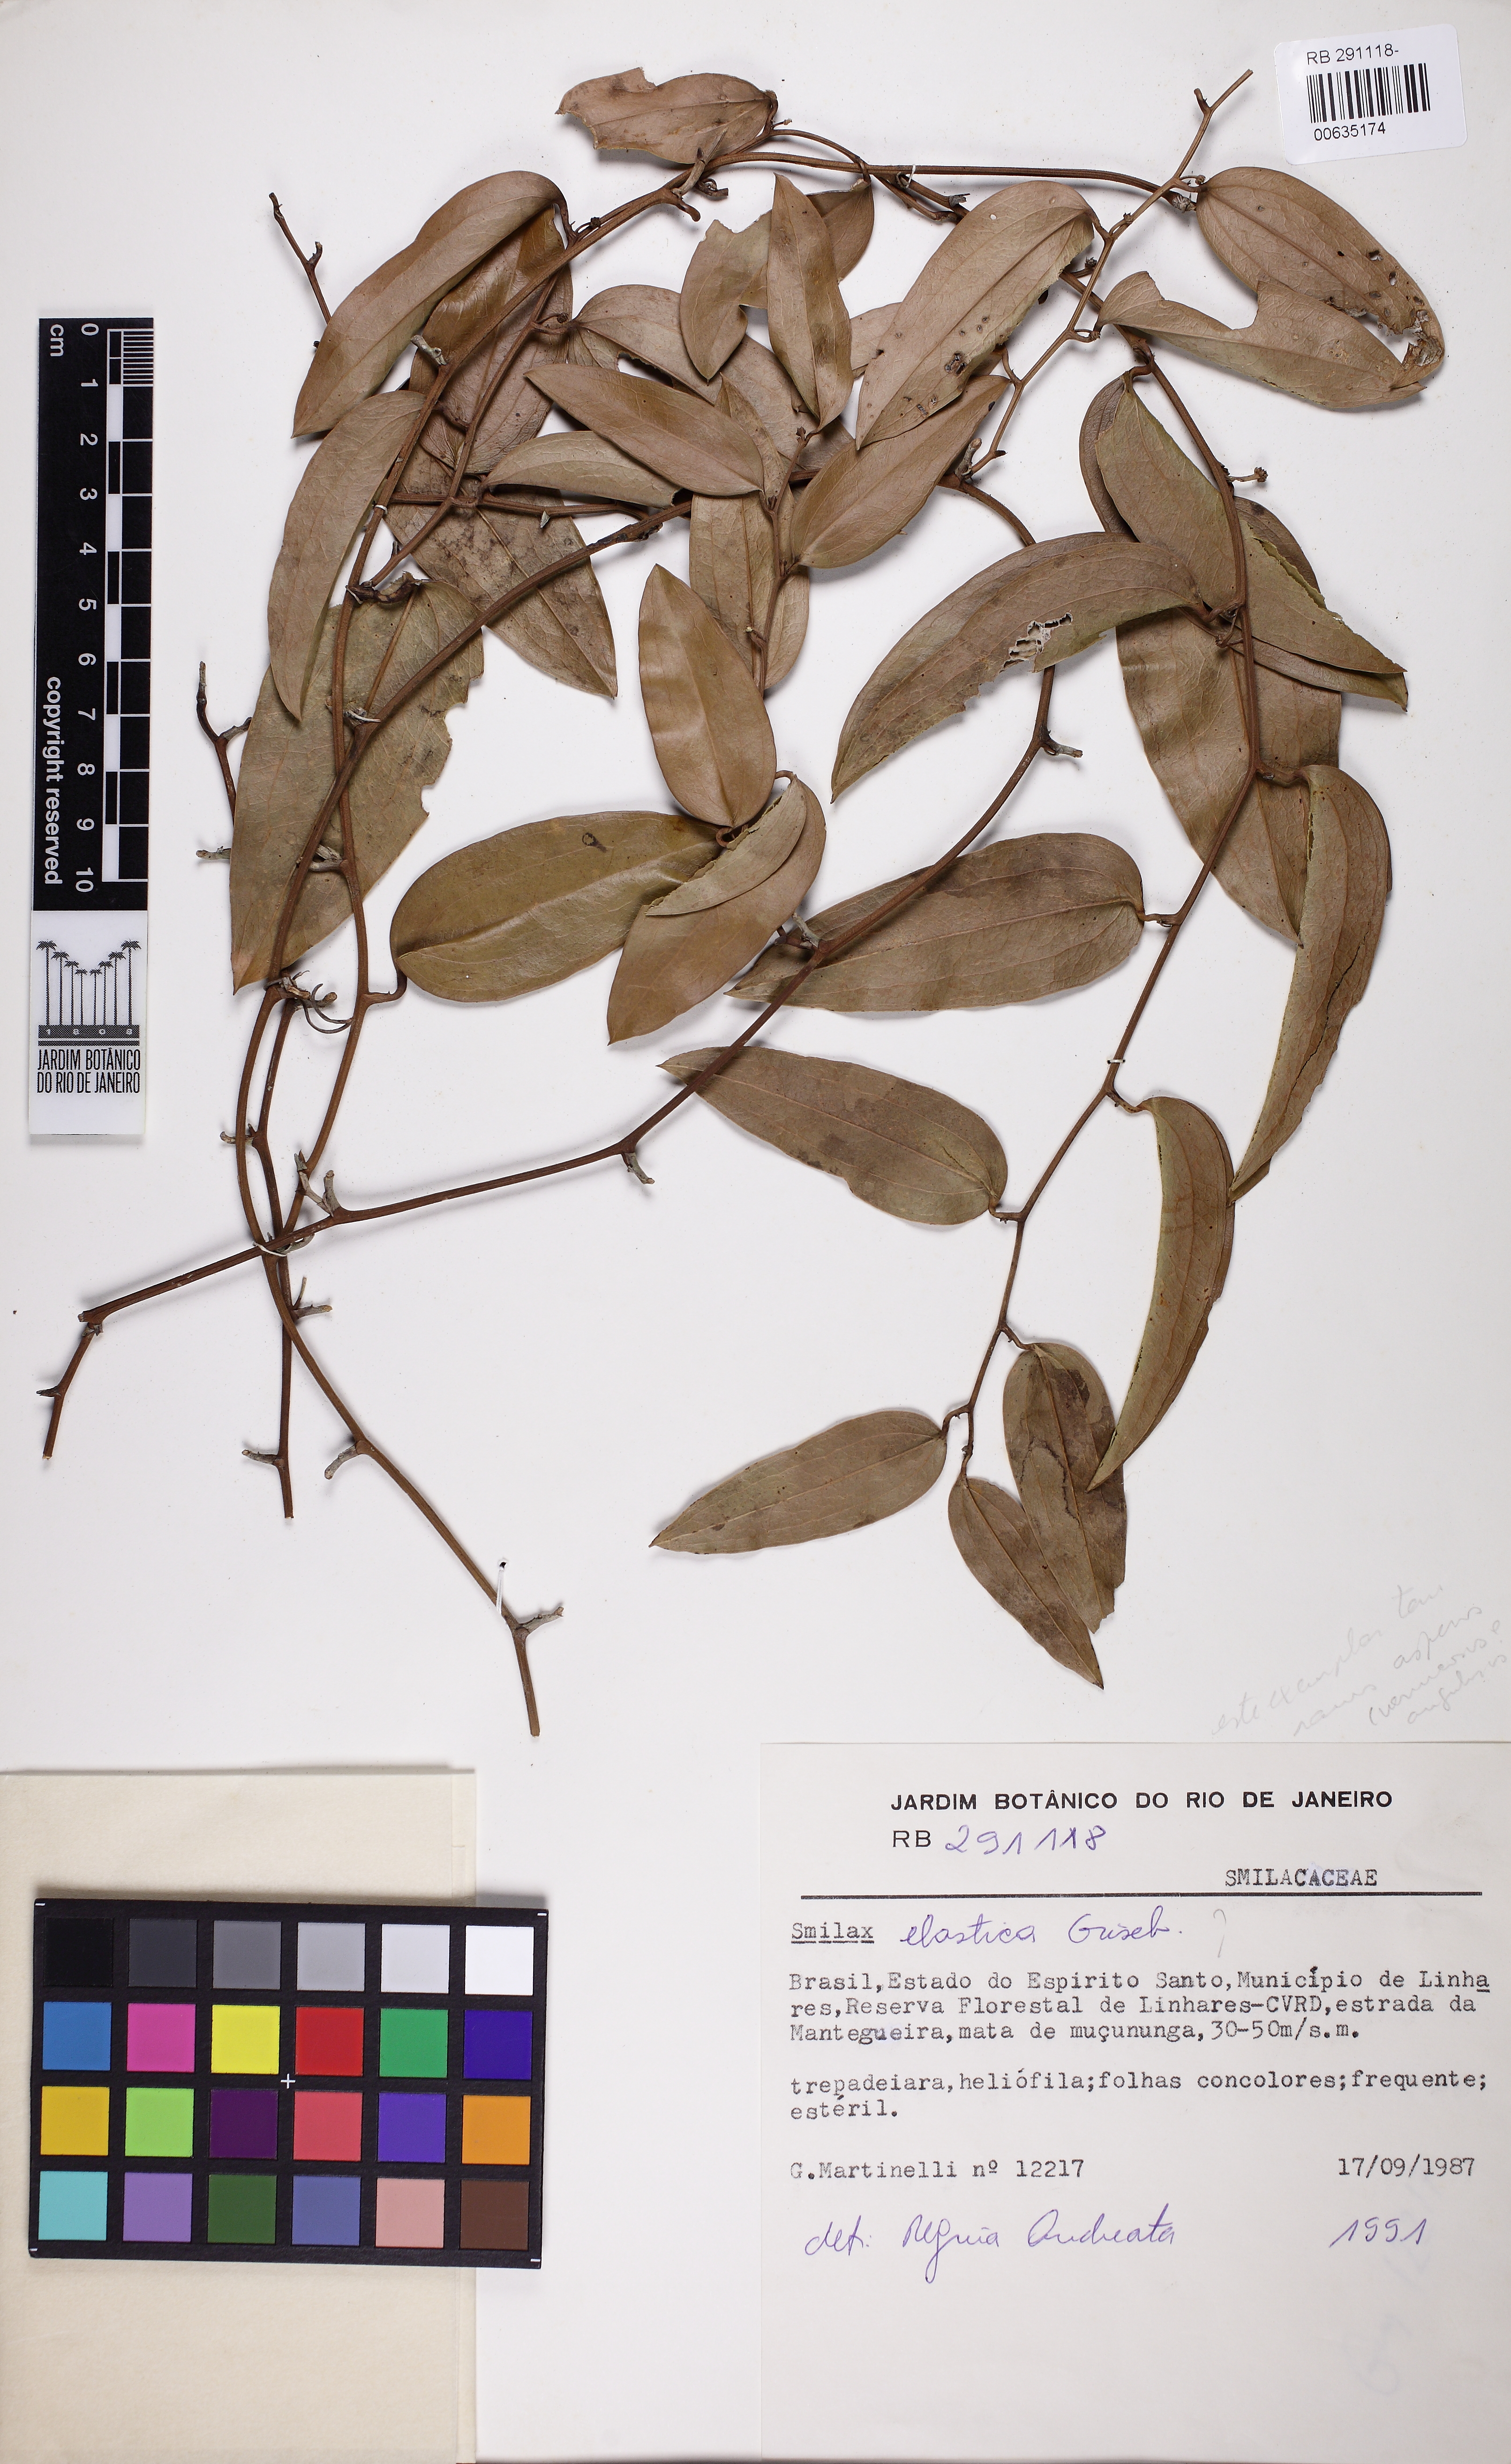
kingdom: Plantae
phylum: Tracheophyta
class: Liliopsida
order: Liliales
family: Smilacaceae
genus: Smilax
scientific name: Smilax elastica
